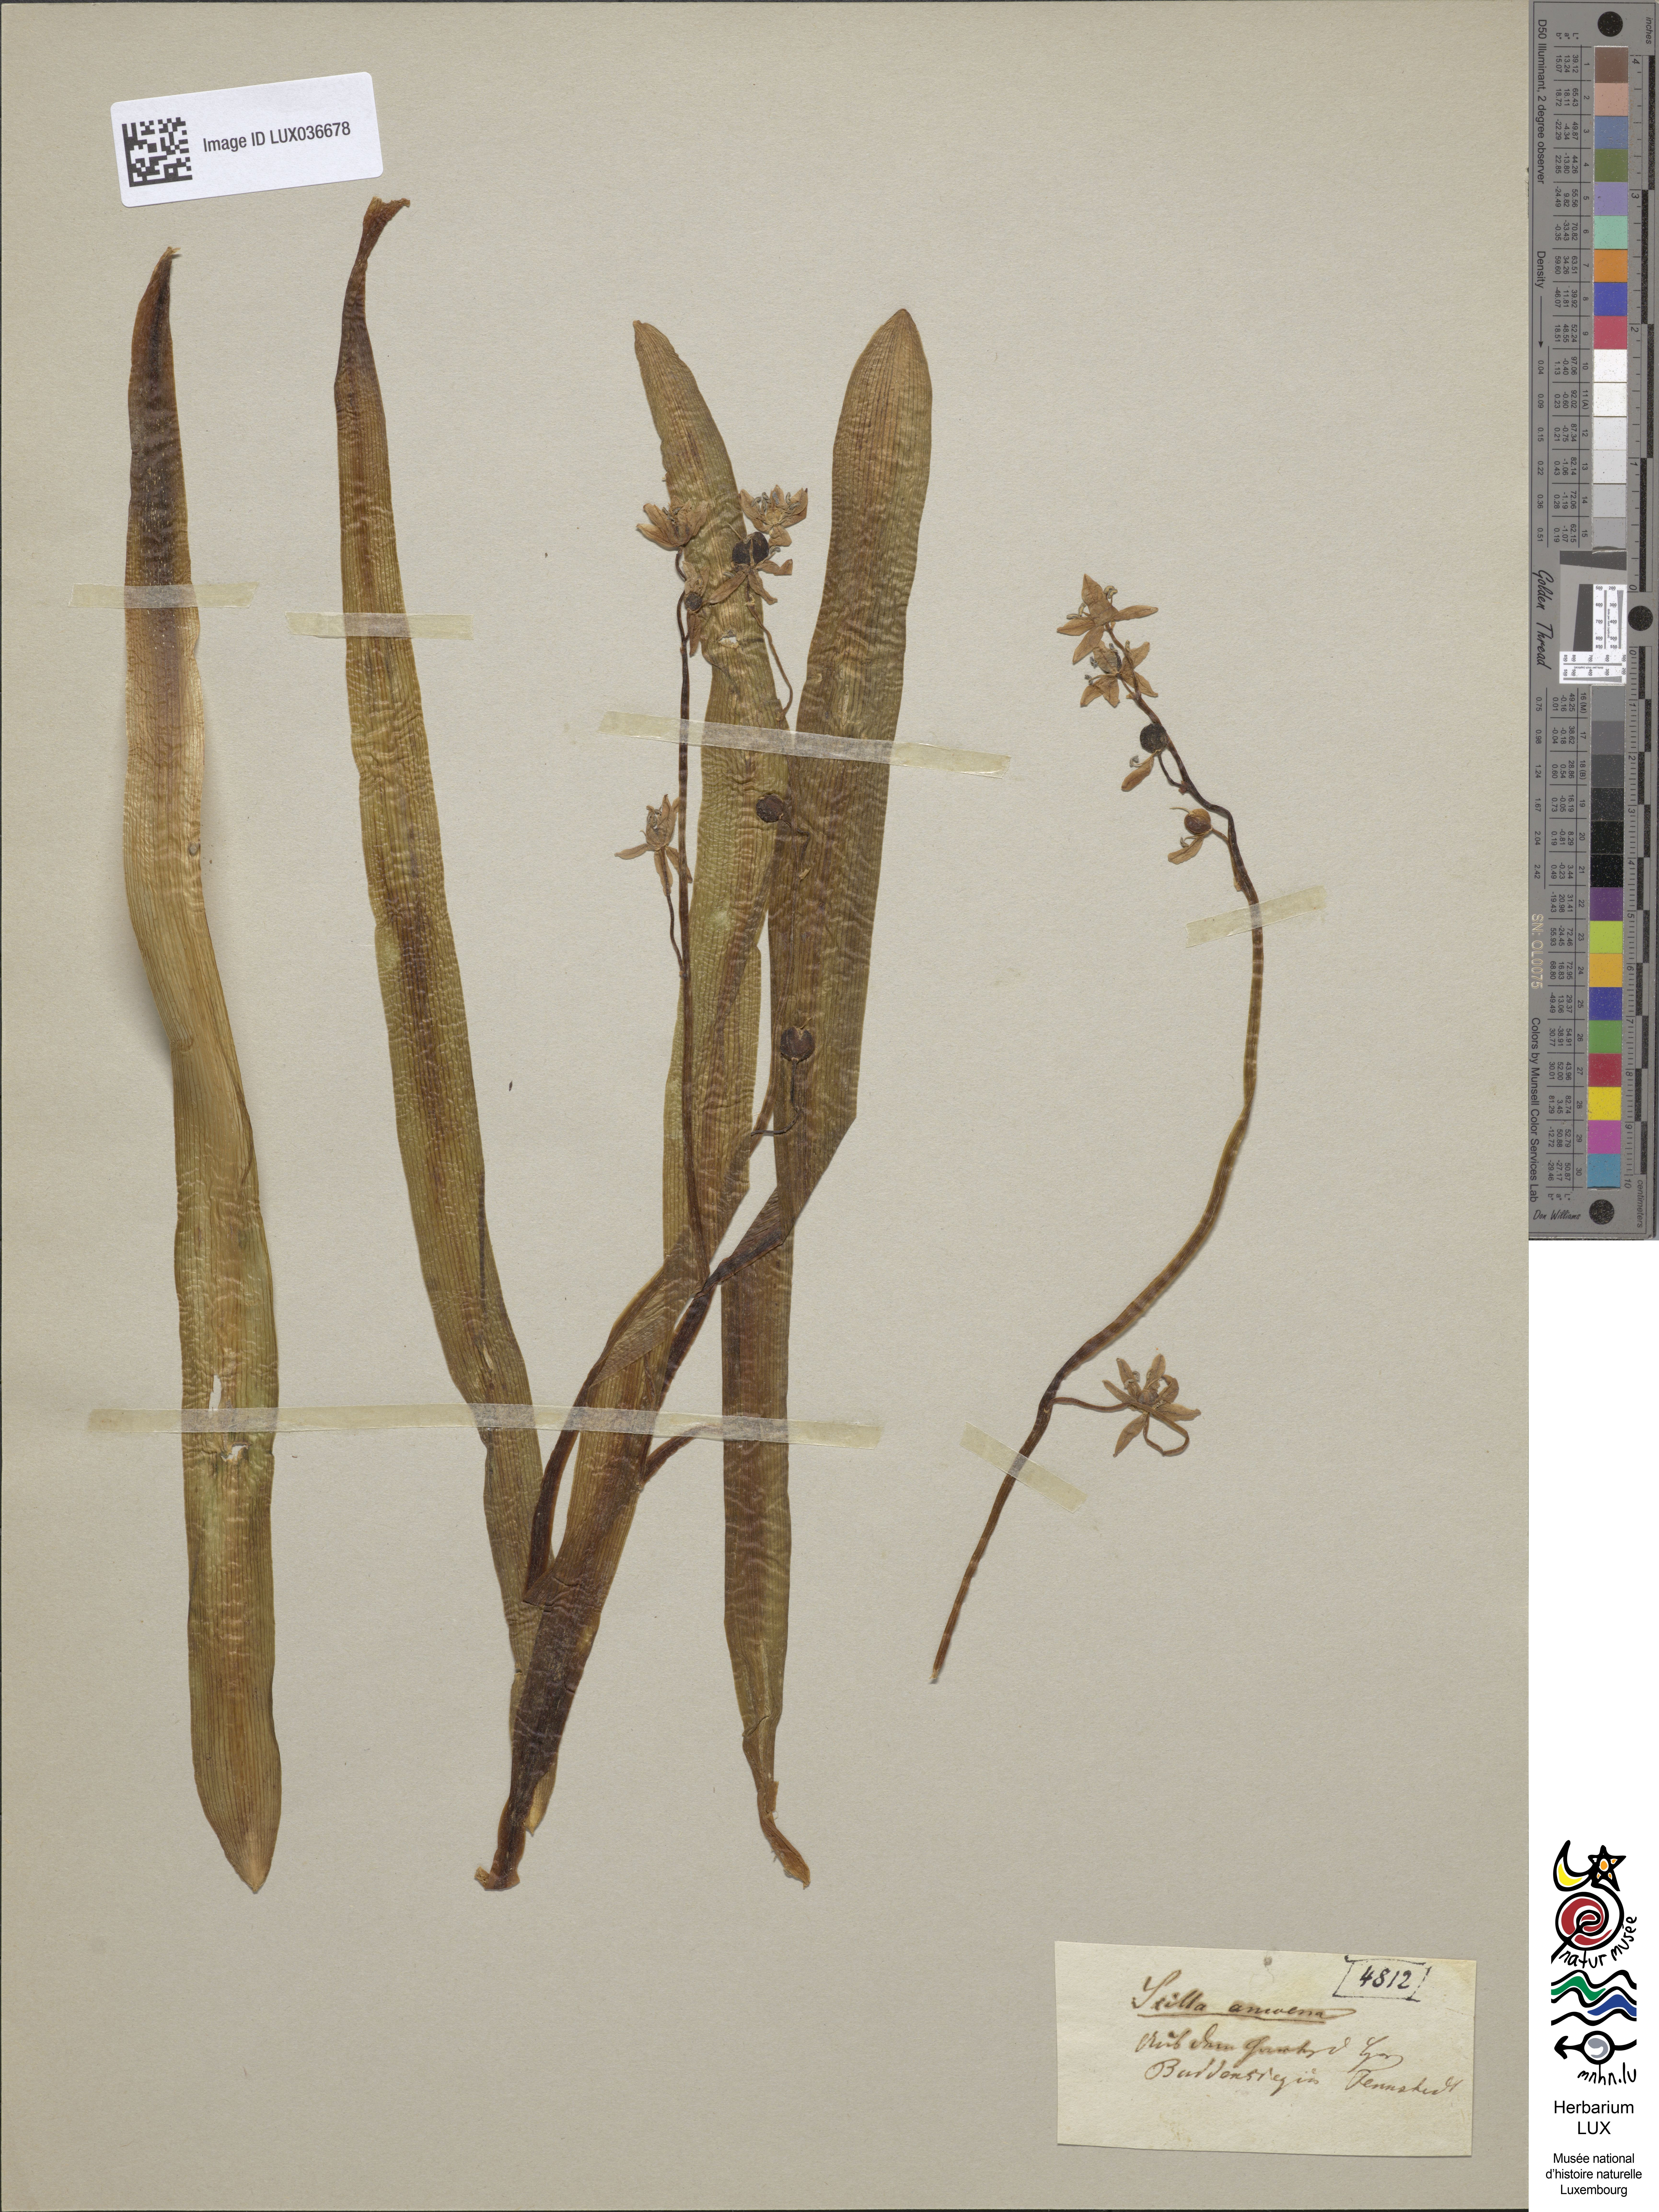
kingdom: Plantae
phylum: Tracheophyta
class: Liliopsida
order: Asparagales
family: Asparagaceae
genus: Scilla
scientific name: Scilla amoena
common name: Star-hyacinth
